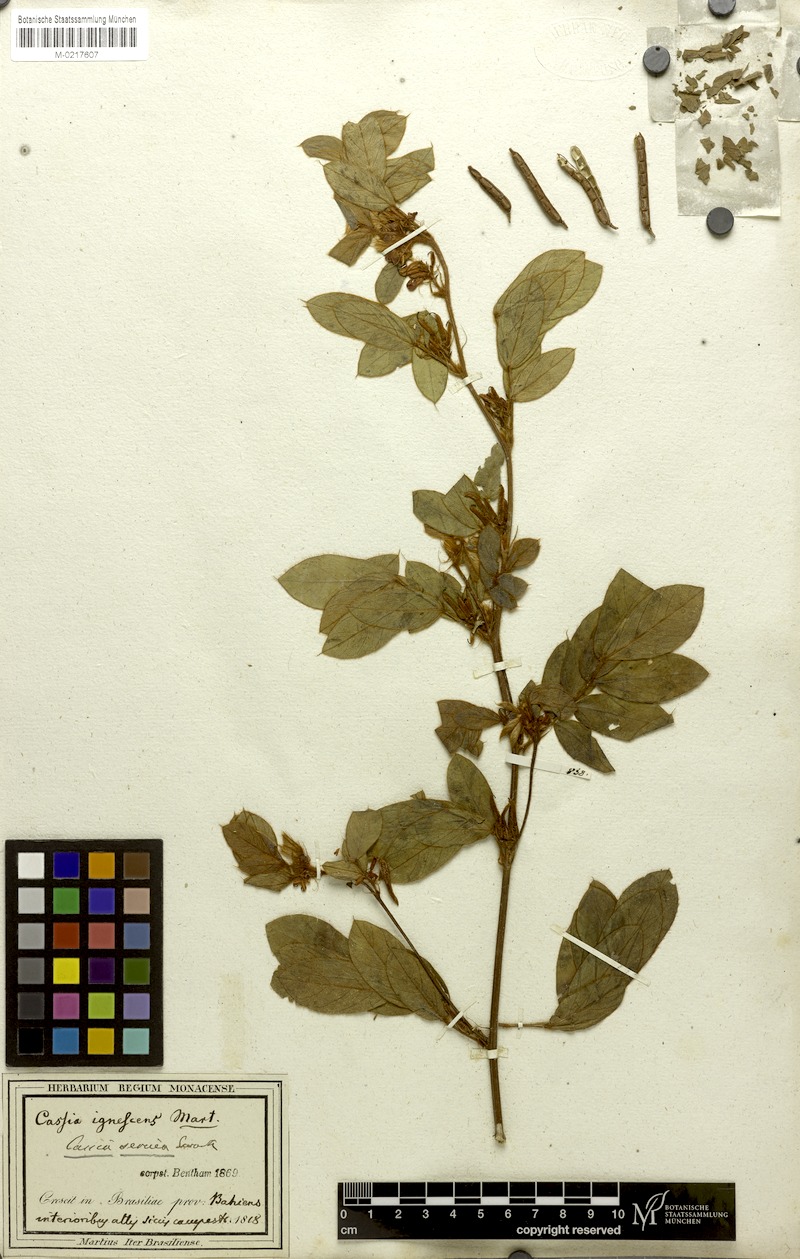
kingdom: Plantae
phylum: Tracheophyta
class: Magnoliopsida
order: Fabales
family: Fabaceae
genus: Senna
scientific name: Senna uniflora
